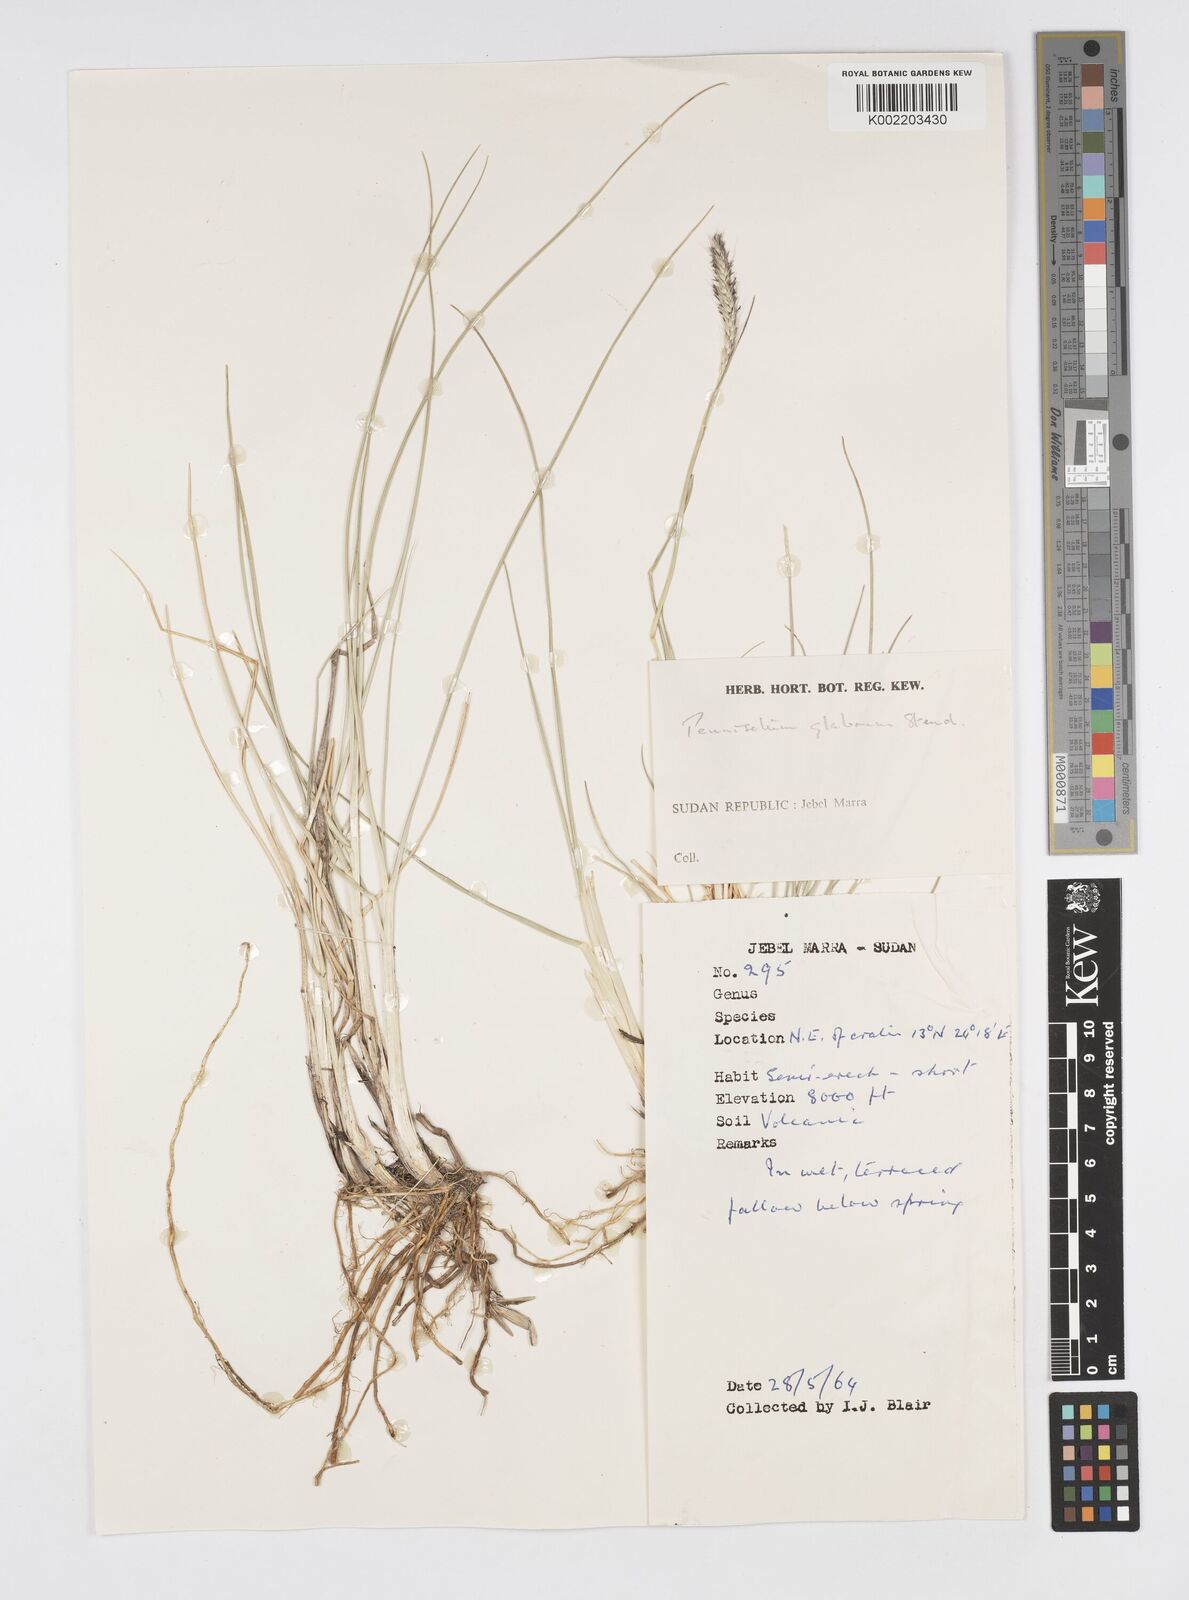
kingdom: Plantae
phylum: Tracheophyta
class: Liliopsida
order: Poales
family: Poaceae
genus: Cenchrus
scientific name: Cenchrus geniculatus
